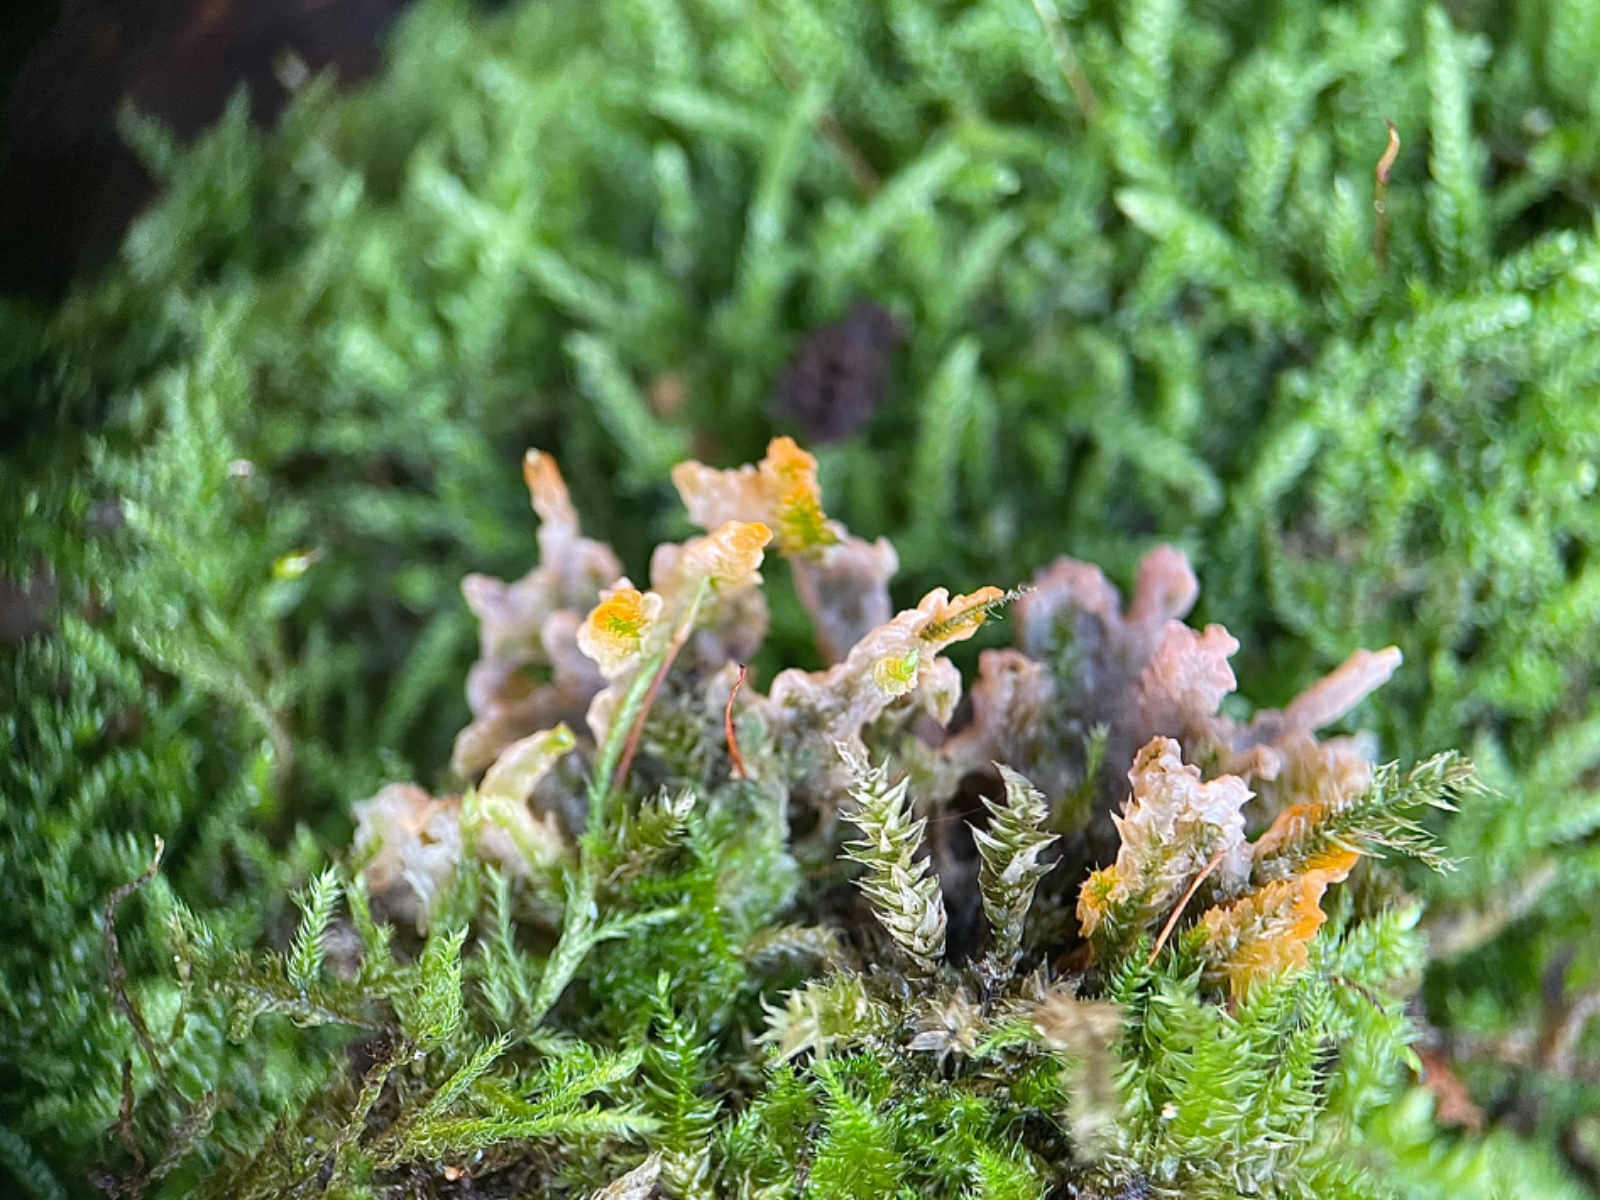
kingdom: Fungi
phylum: Basidiomycota
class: Agaricomycetes
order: Polyporales
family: Meruliaceae
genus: Phlebia
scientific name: Phlebia radiata
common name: stråle-åresvamp
